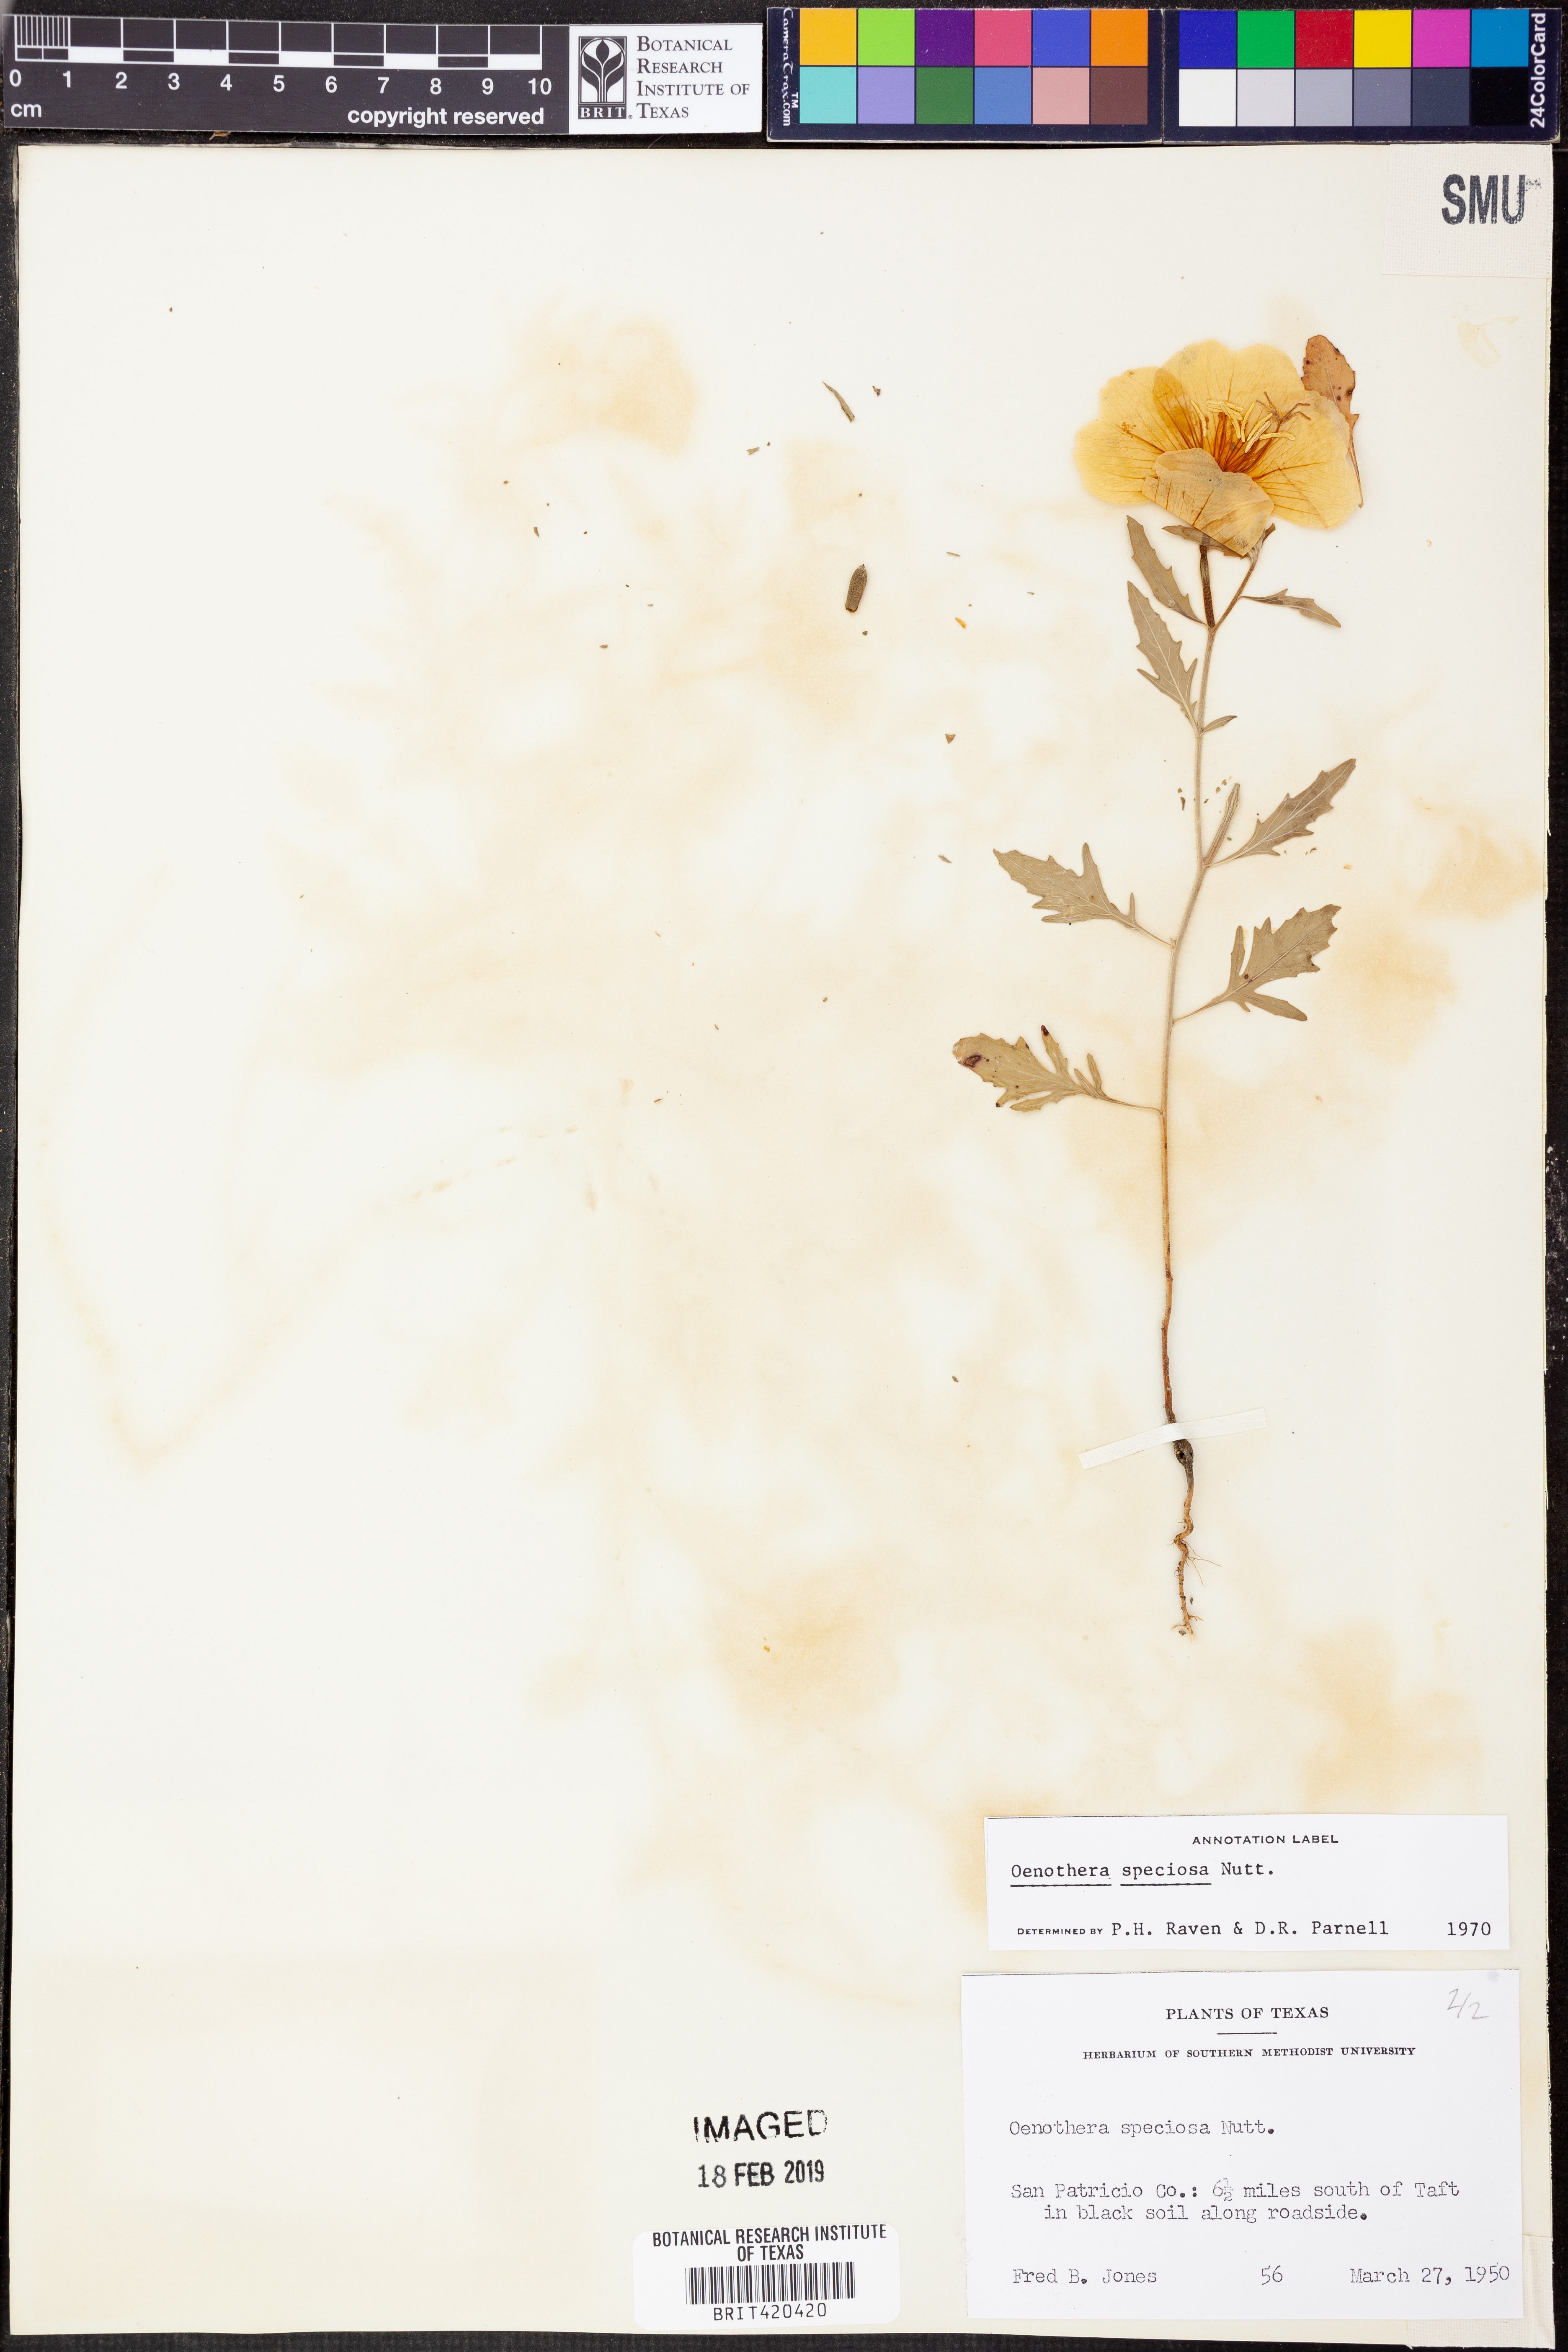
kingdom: Plantae
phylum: Tracheophyta
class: Magnoliopsida
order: Myrtales
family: Onagraceae
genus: Oenothera
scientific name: Oenothera speciosa
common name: White evening-primrose
